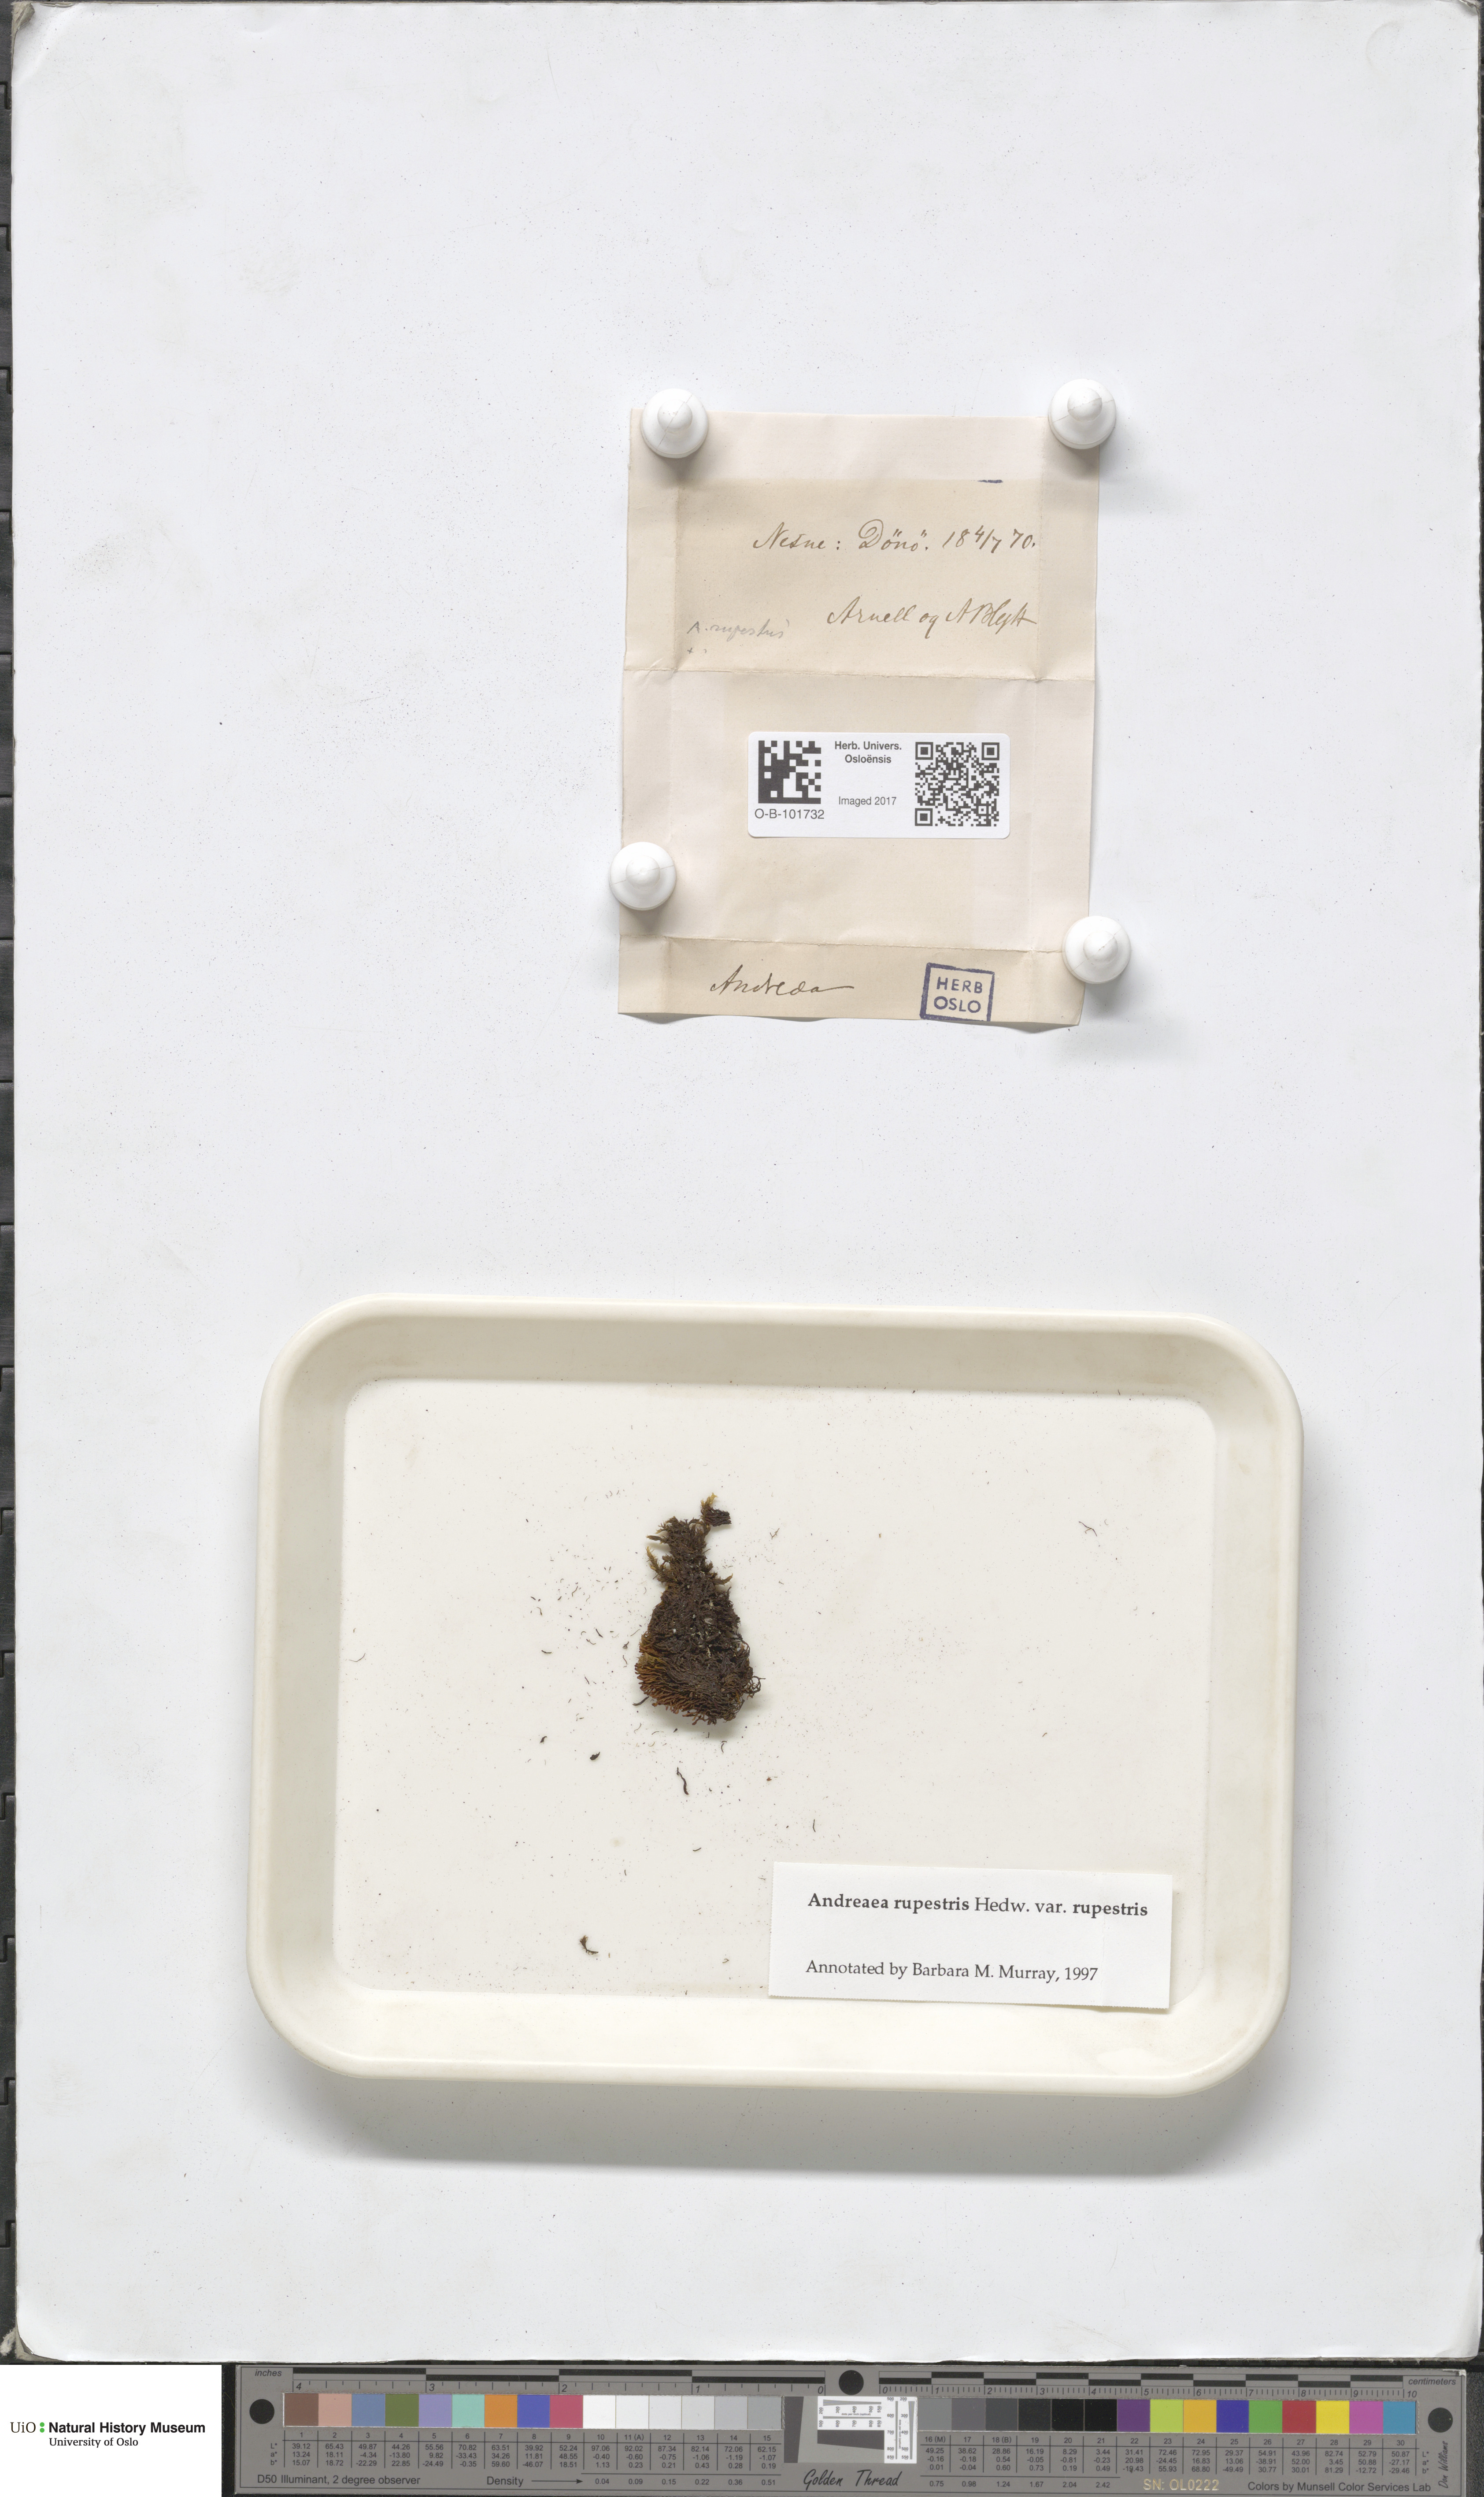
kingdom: Plantae
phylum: Bryophyta
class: Andreaeopsida
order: Andreaeales
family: Andreaeaceae
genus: Andreaea
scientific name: Andreaea rupestris
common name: Black rock moss
